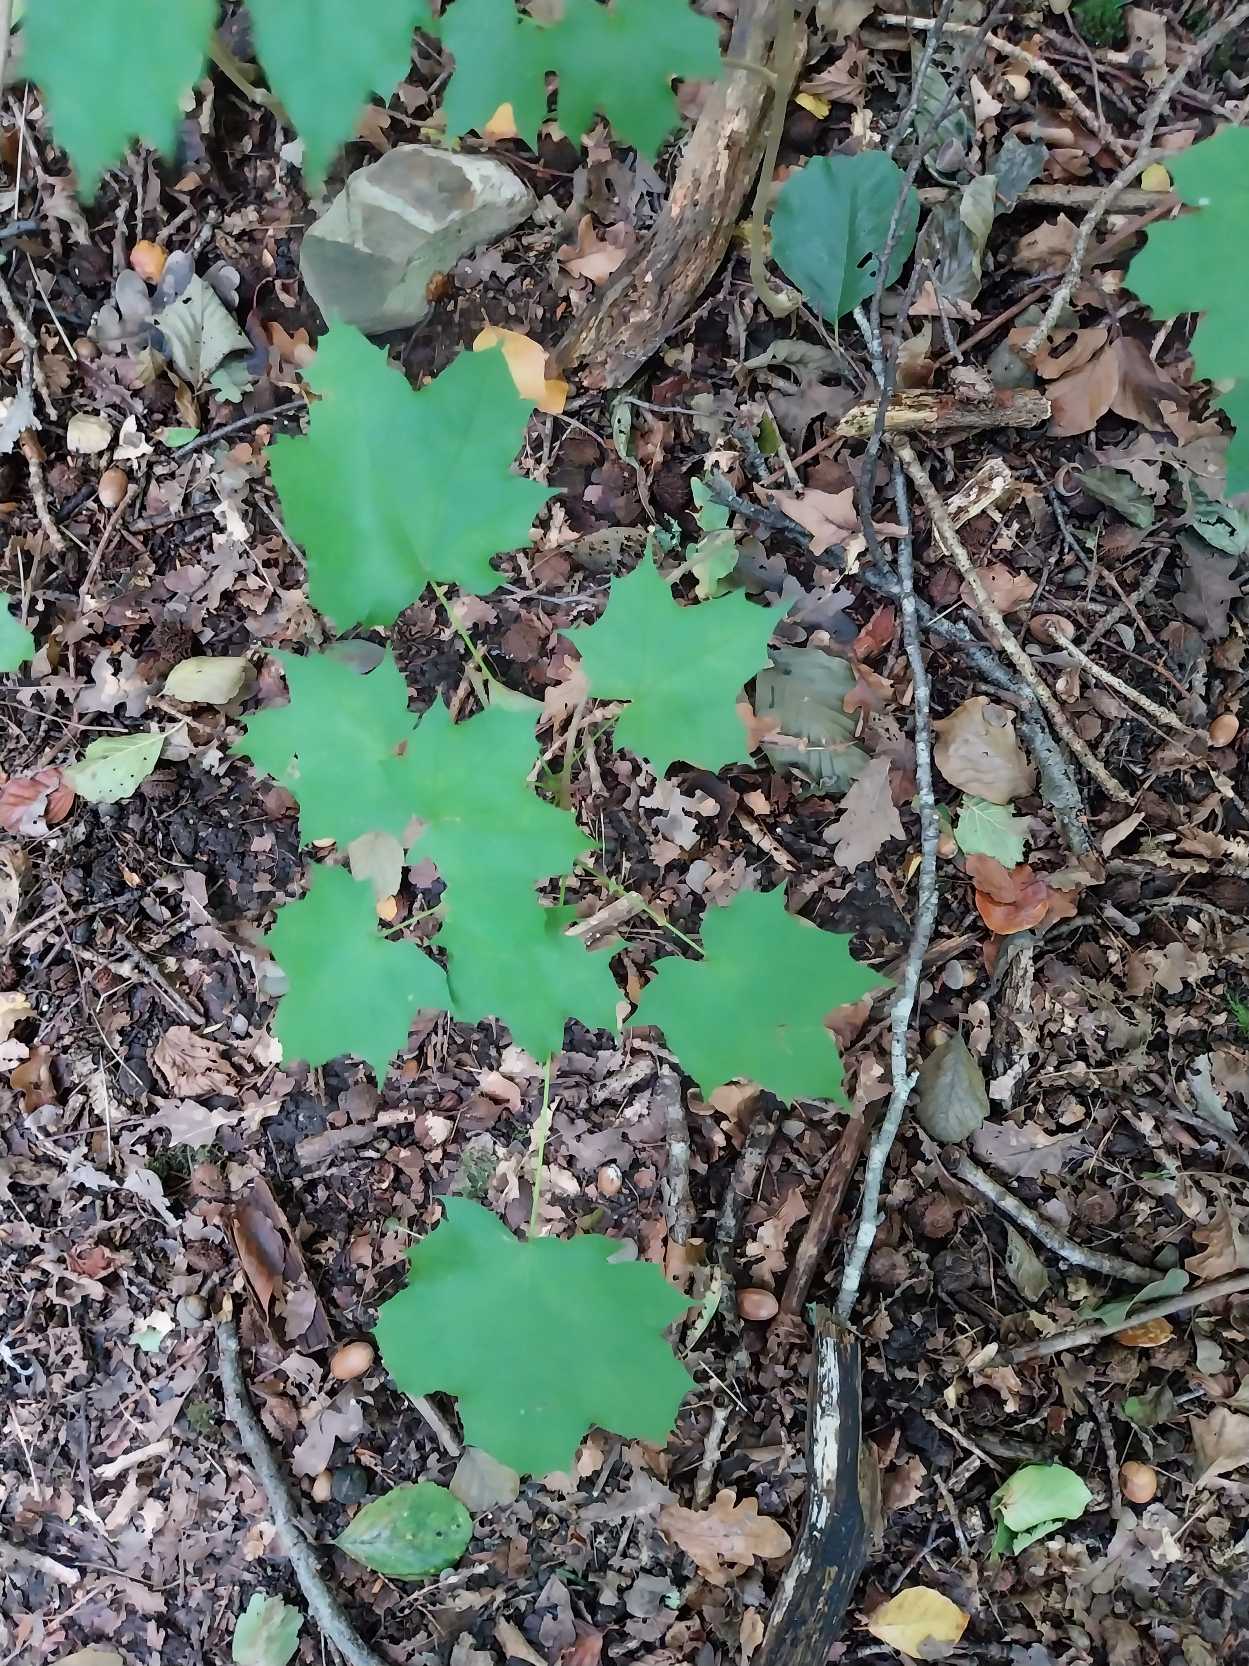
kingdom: Plantae
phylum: Tracheophyta
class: Magnoliopsida
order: Sapindales
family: Sapindaceae
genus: Acer
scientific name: Acer platanoides
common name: Spids-løn
